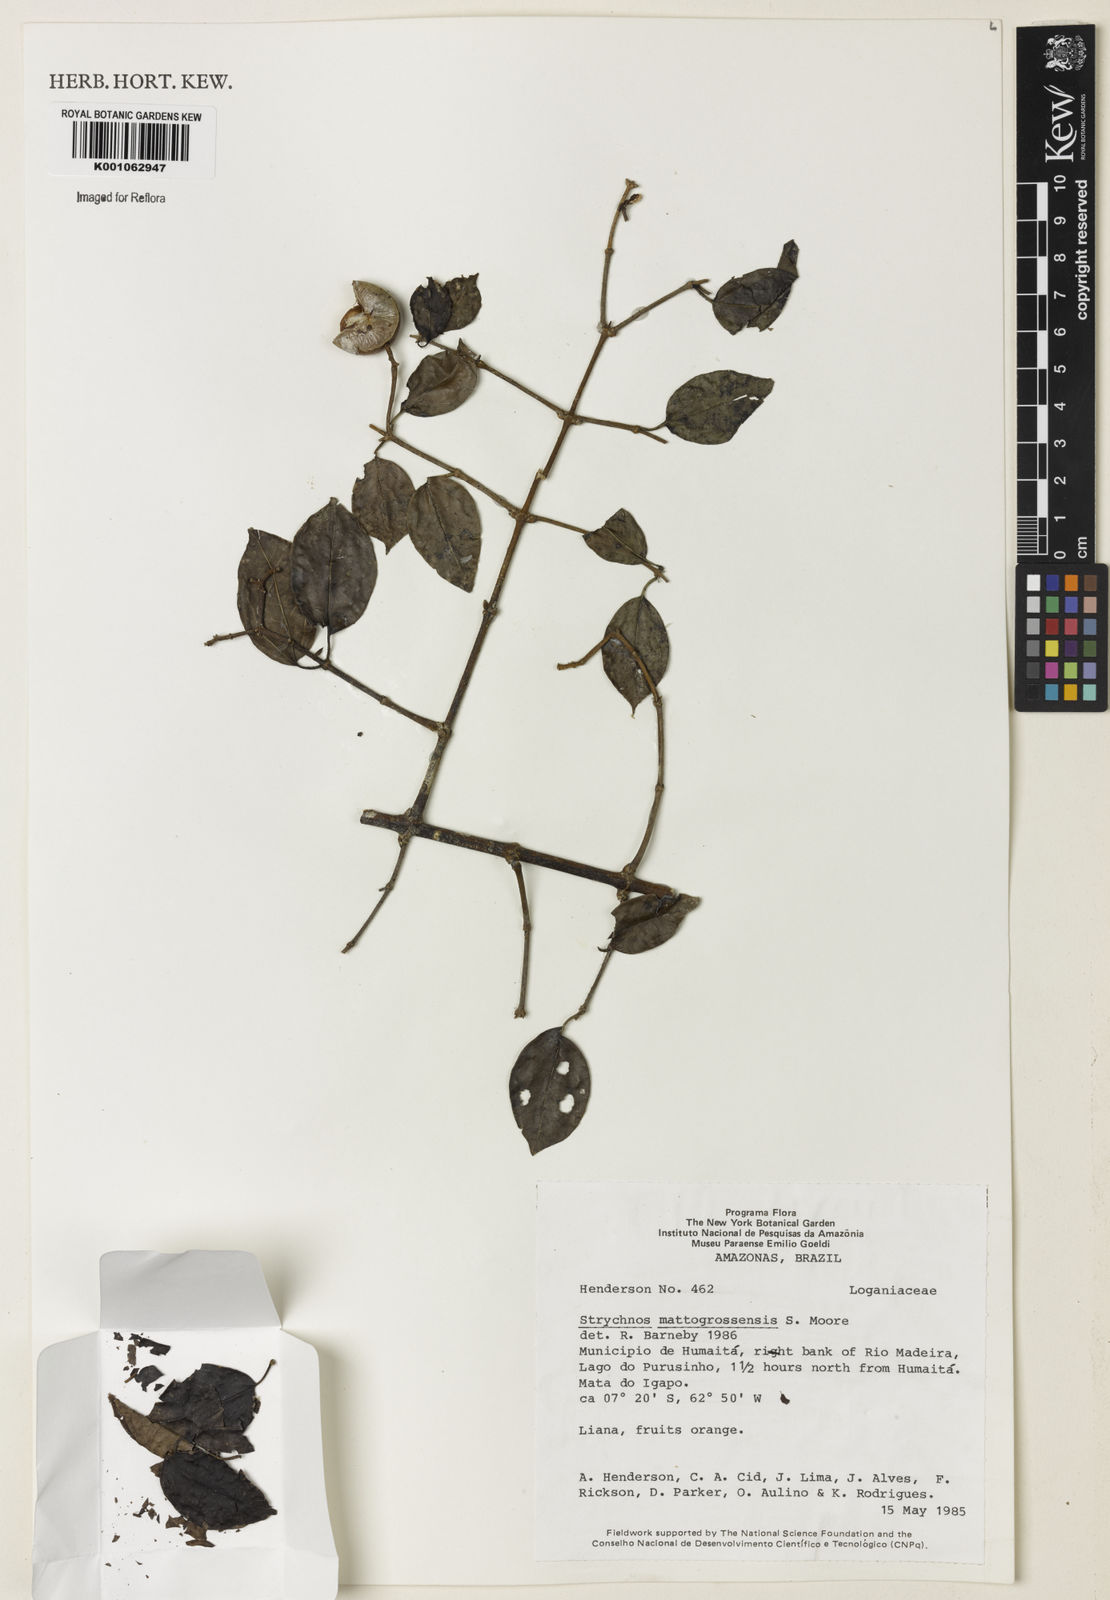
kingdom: Plantae
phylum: Tracheophyta
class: Magnoliopsida
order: Gentianales
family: Loganiaceae
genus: Strychnos
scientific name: Strychnos mattogrossensis
